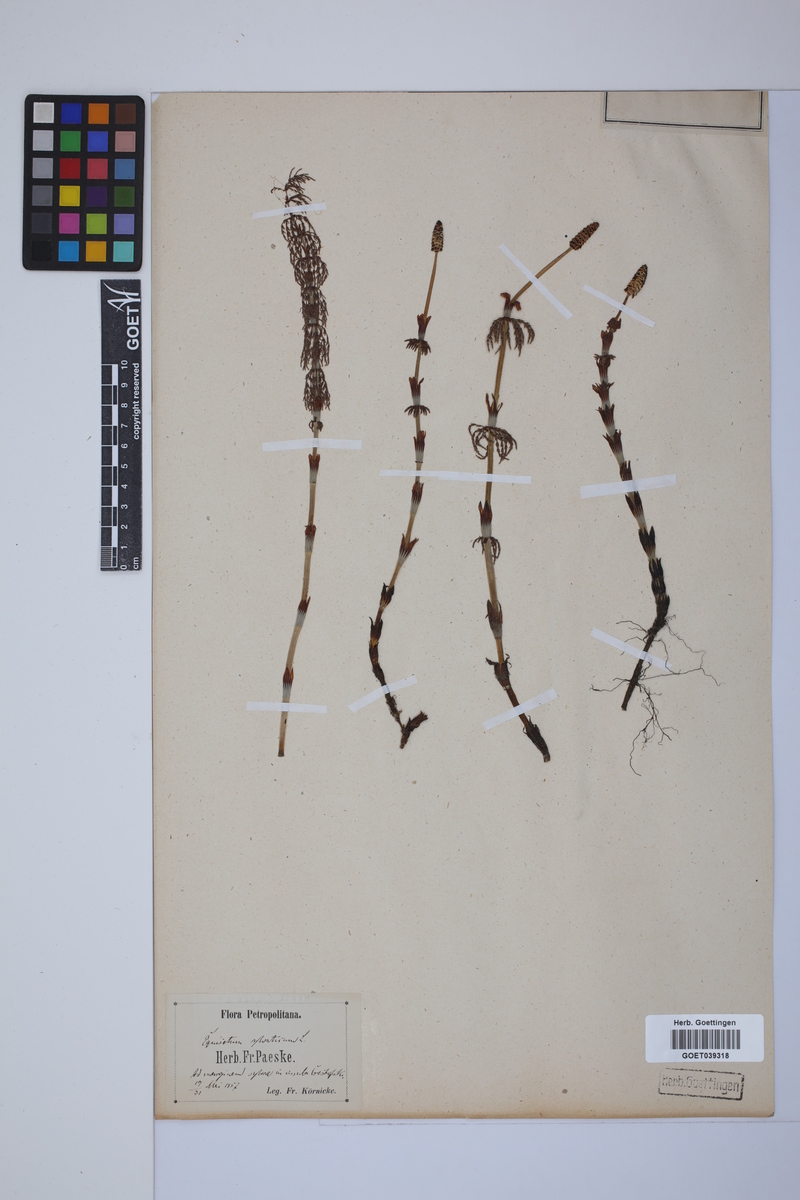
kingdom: Plantae
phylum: Tracheophyta
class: Polypodiopsida
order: Equisetales
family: Equisetaceae
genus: Equisetum
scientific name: Equisetum sylvaticum
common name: Wood horsetail
